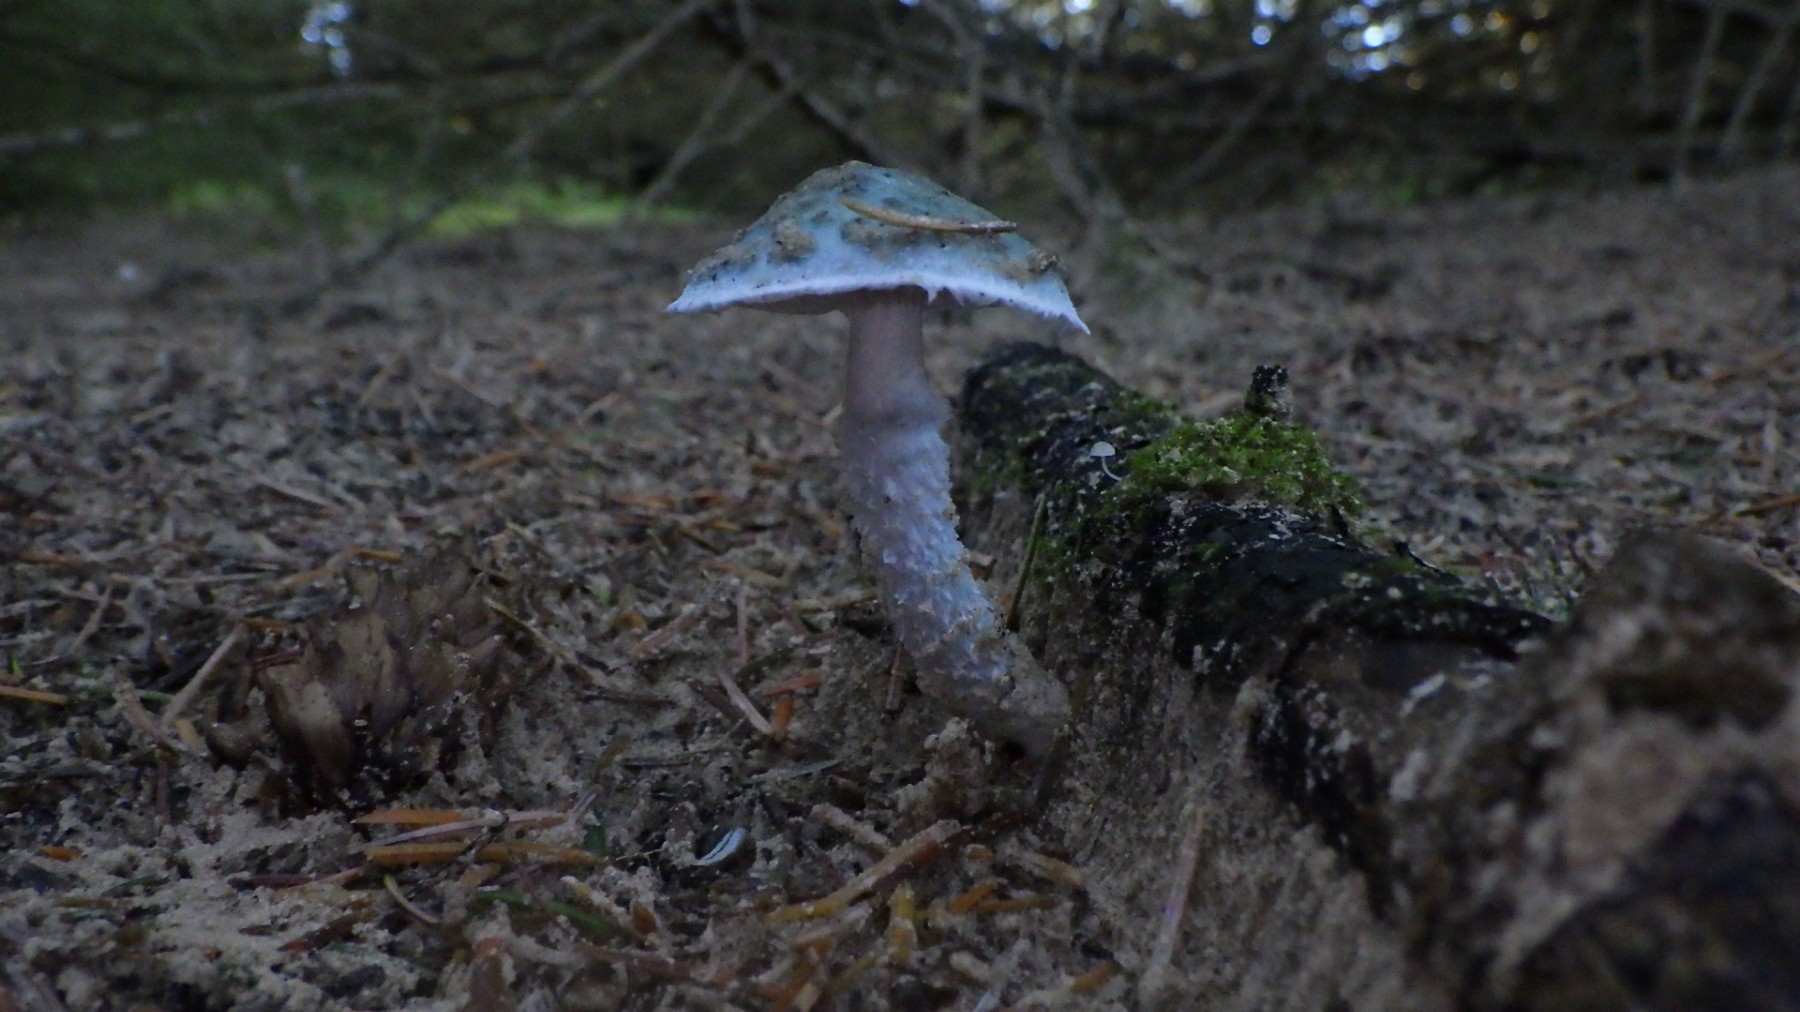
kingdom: Fungi
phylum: Basidiomycota
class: Agaricomycetes
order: Agaricales
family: Strophariaceae
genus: Stropharia
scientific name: Stropharia aeruginosa
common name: spanskgrøn bredblad
